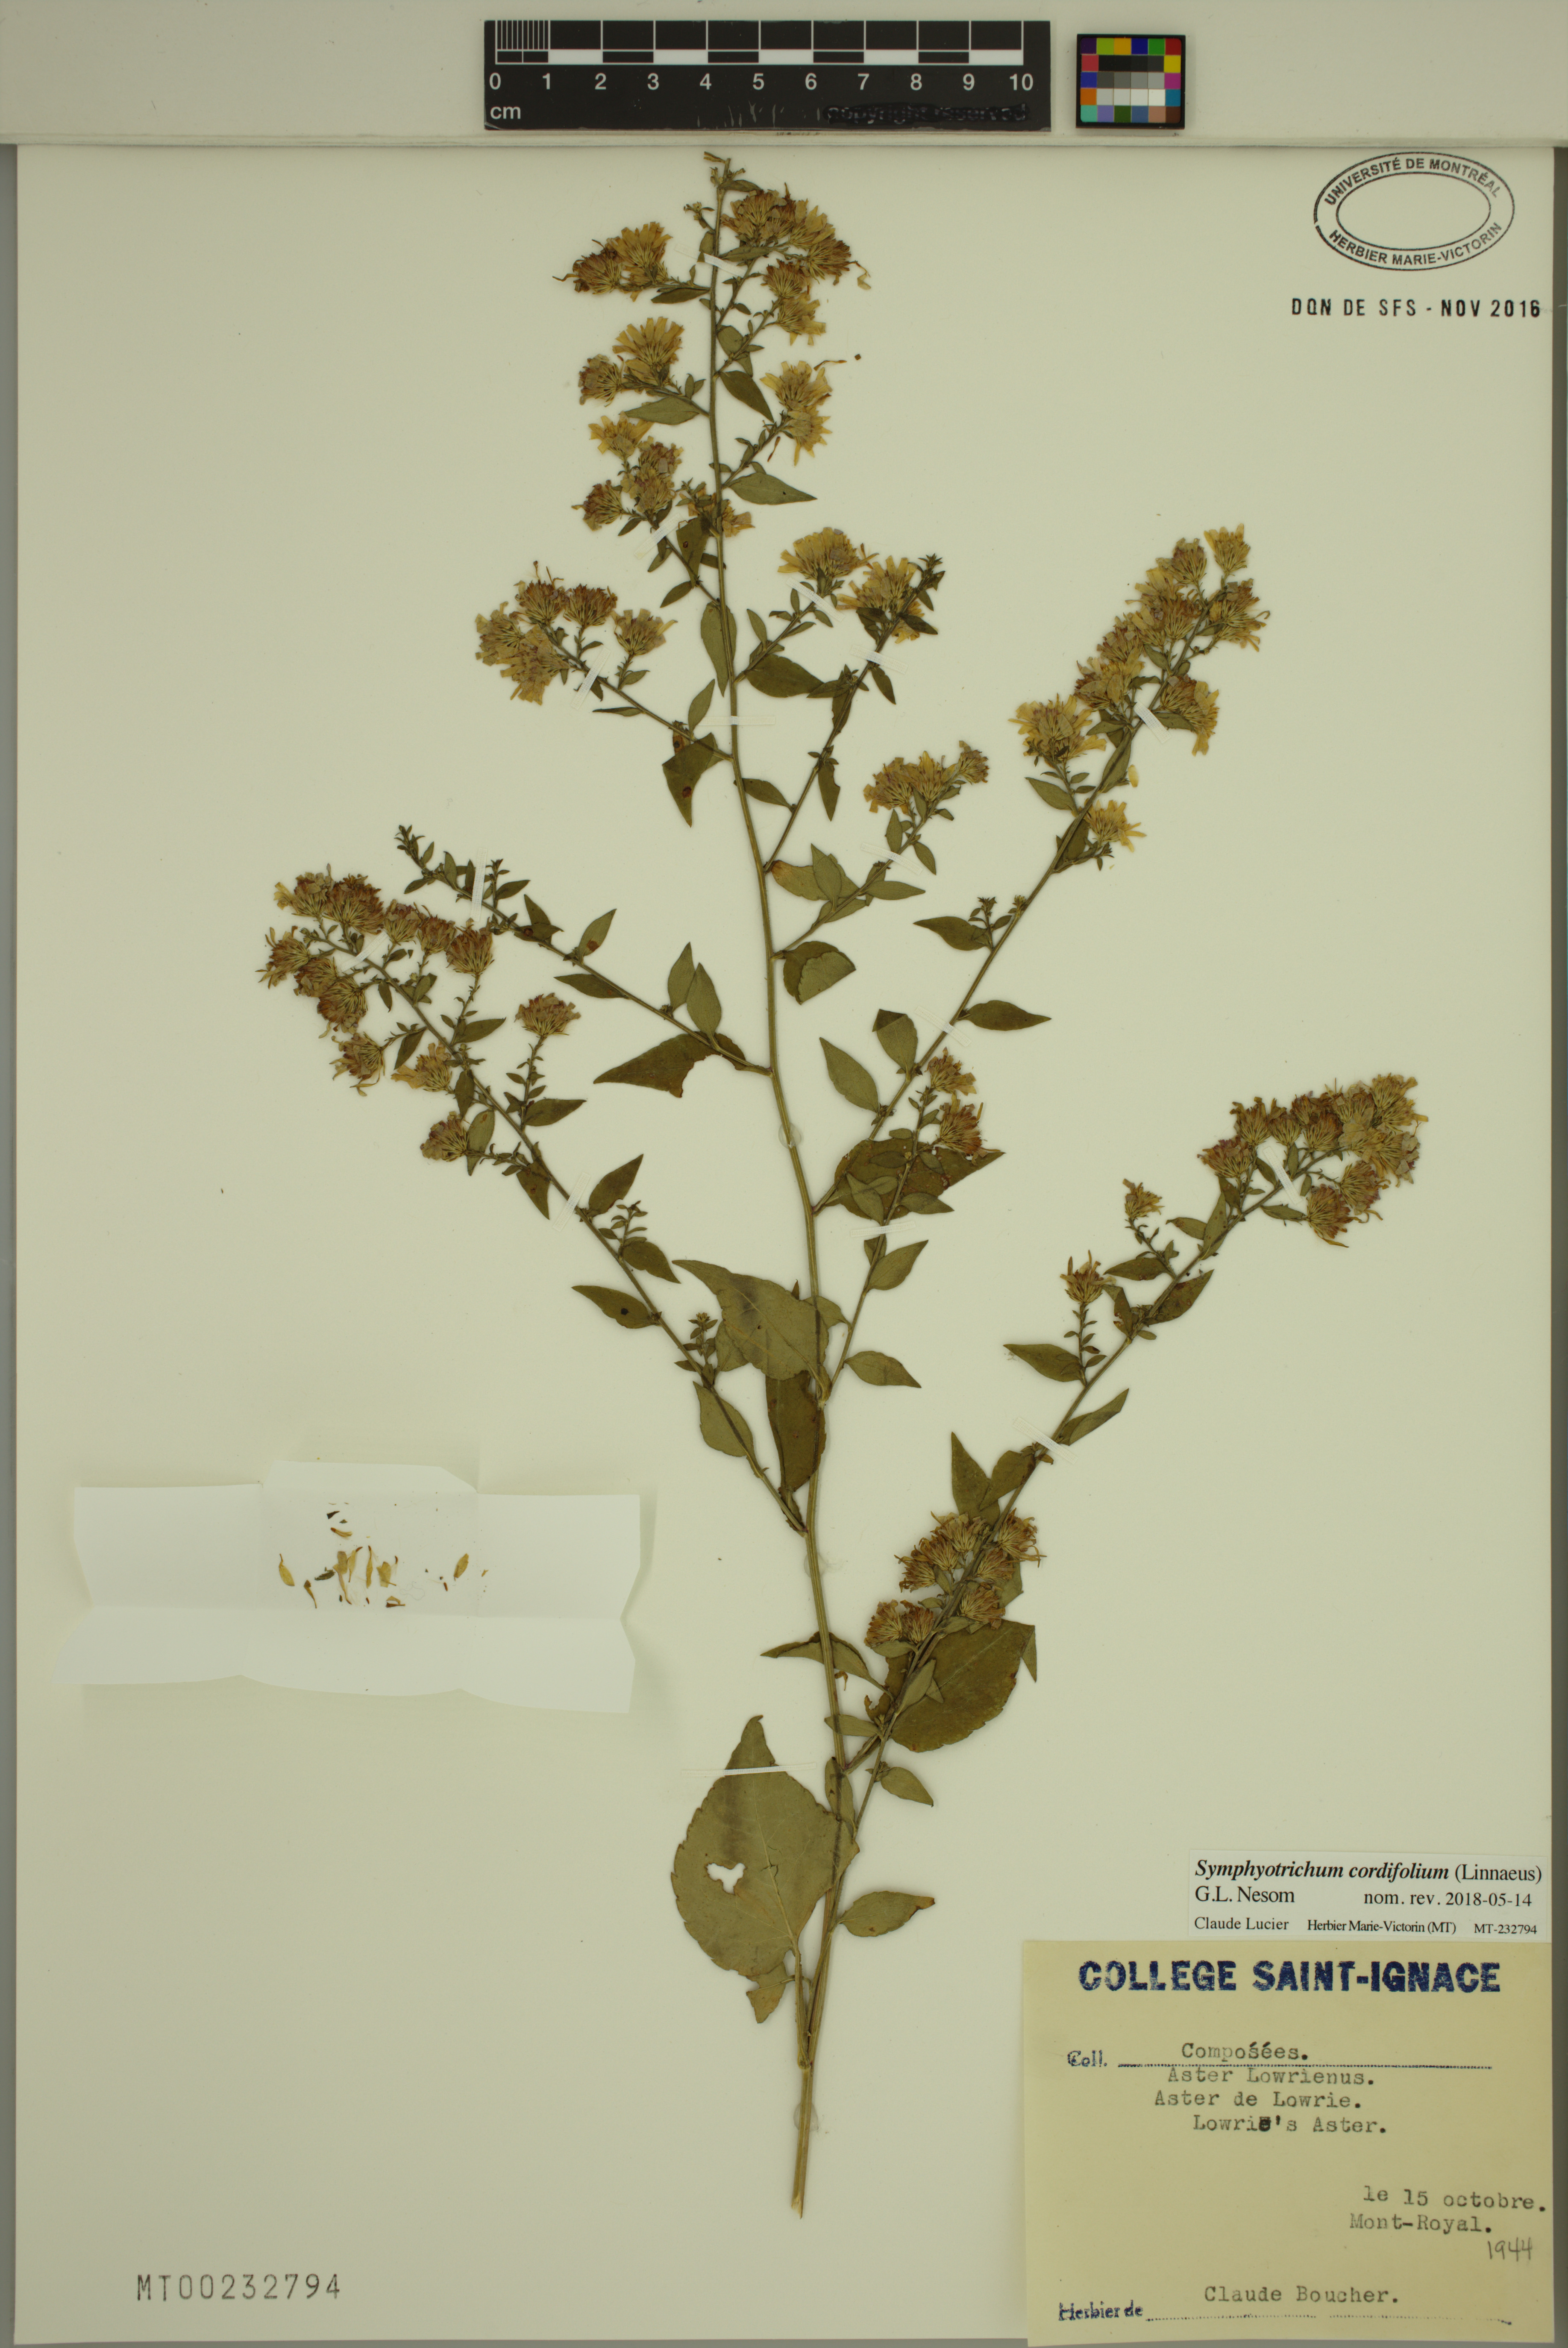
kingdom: Plantae
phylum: Tracheophyta
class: Magnoliopsida
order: Asterales
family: Asteraceae
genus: Symphyotrichum
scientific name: Symphyotrichum cordifolium
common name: Beeweed
